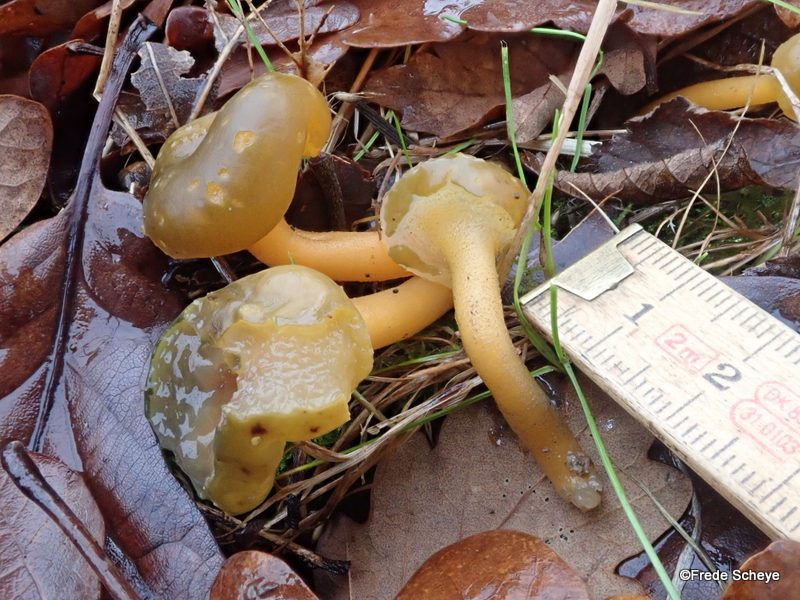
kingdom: Fungi
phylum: Ascomycota
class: Leotiomycetes
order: Leotiales
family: Leotiaceae
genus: Leotia
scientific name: Leotia lubrica
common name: ravsvamp
